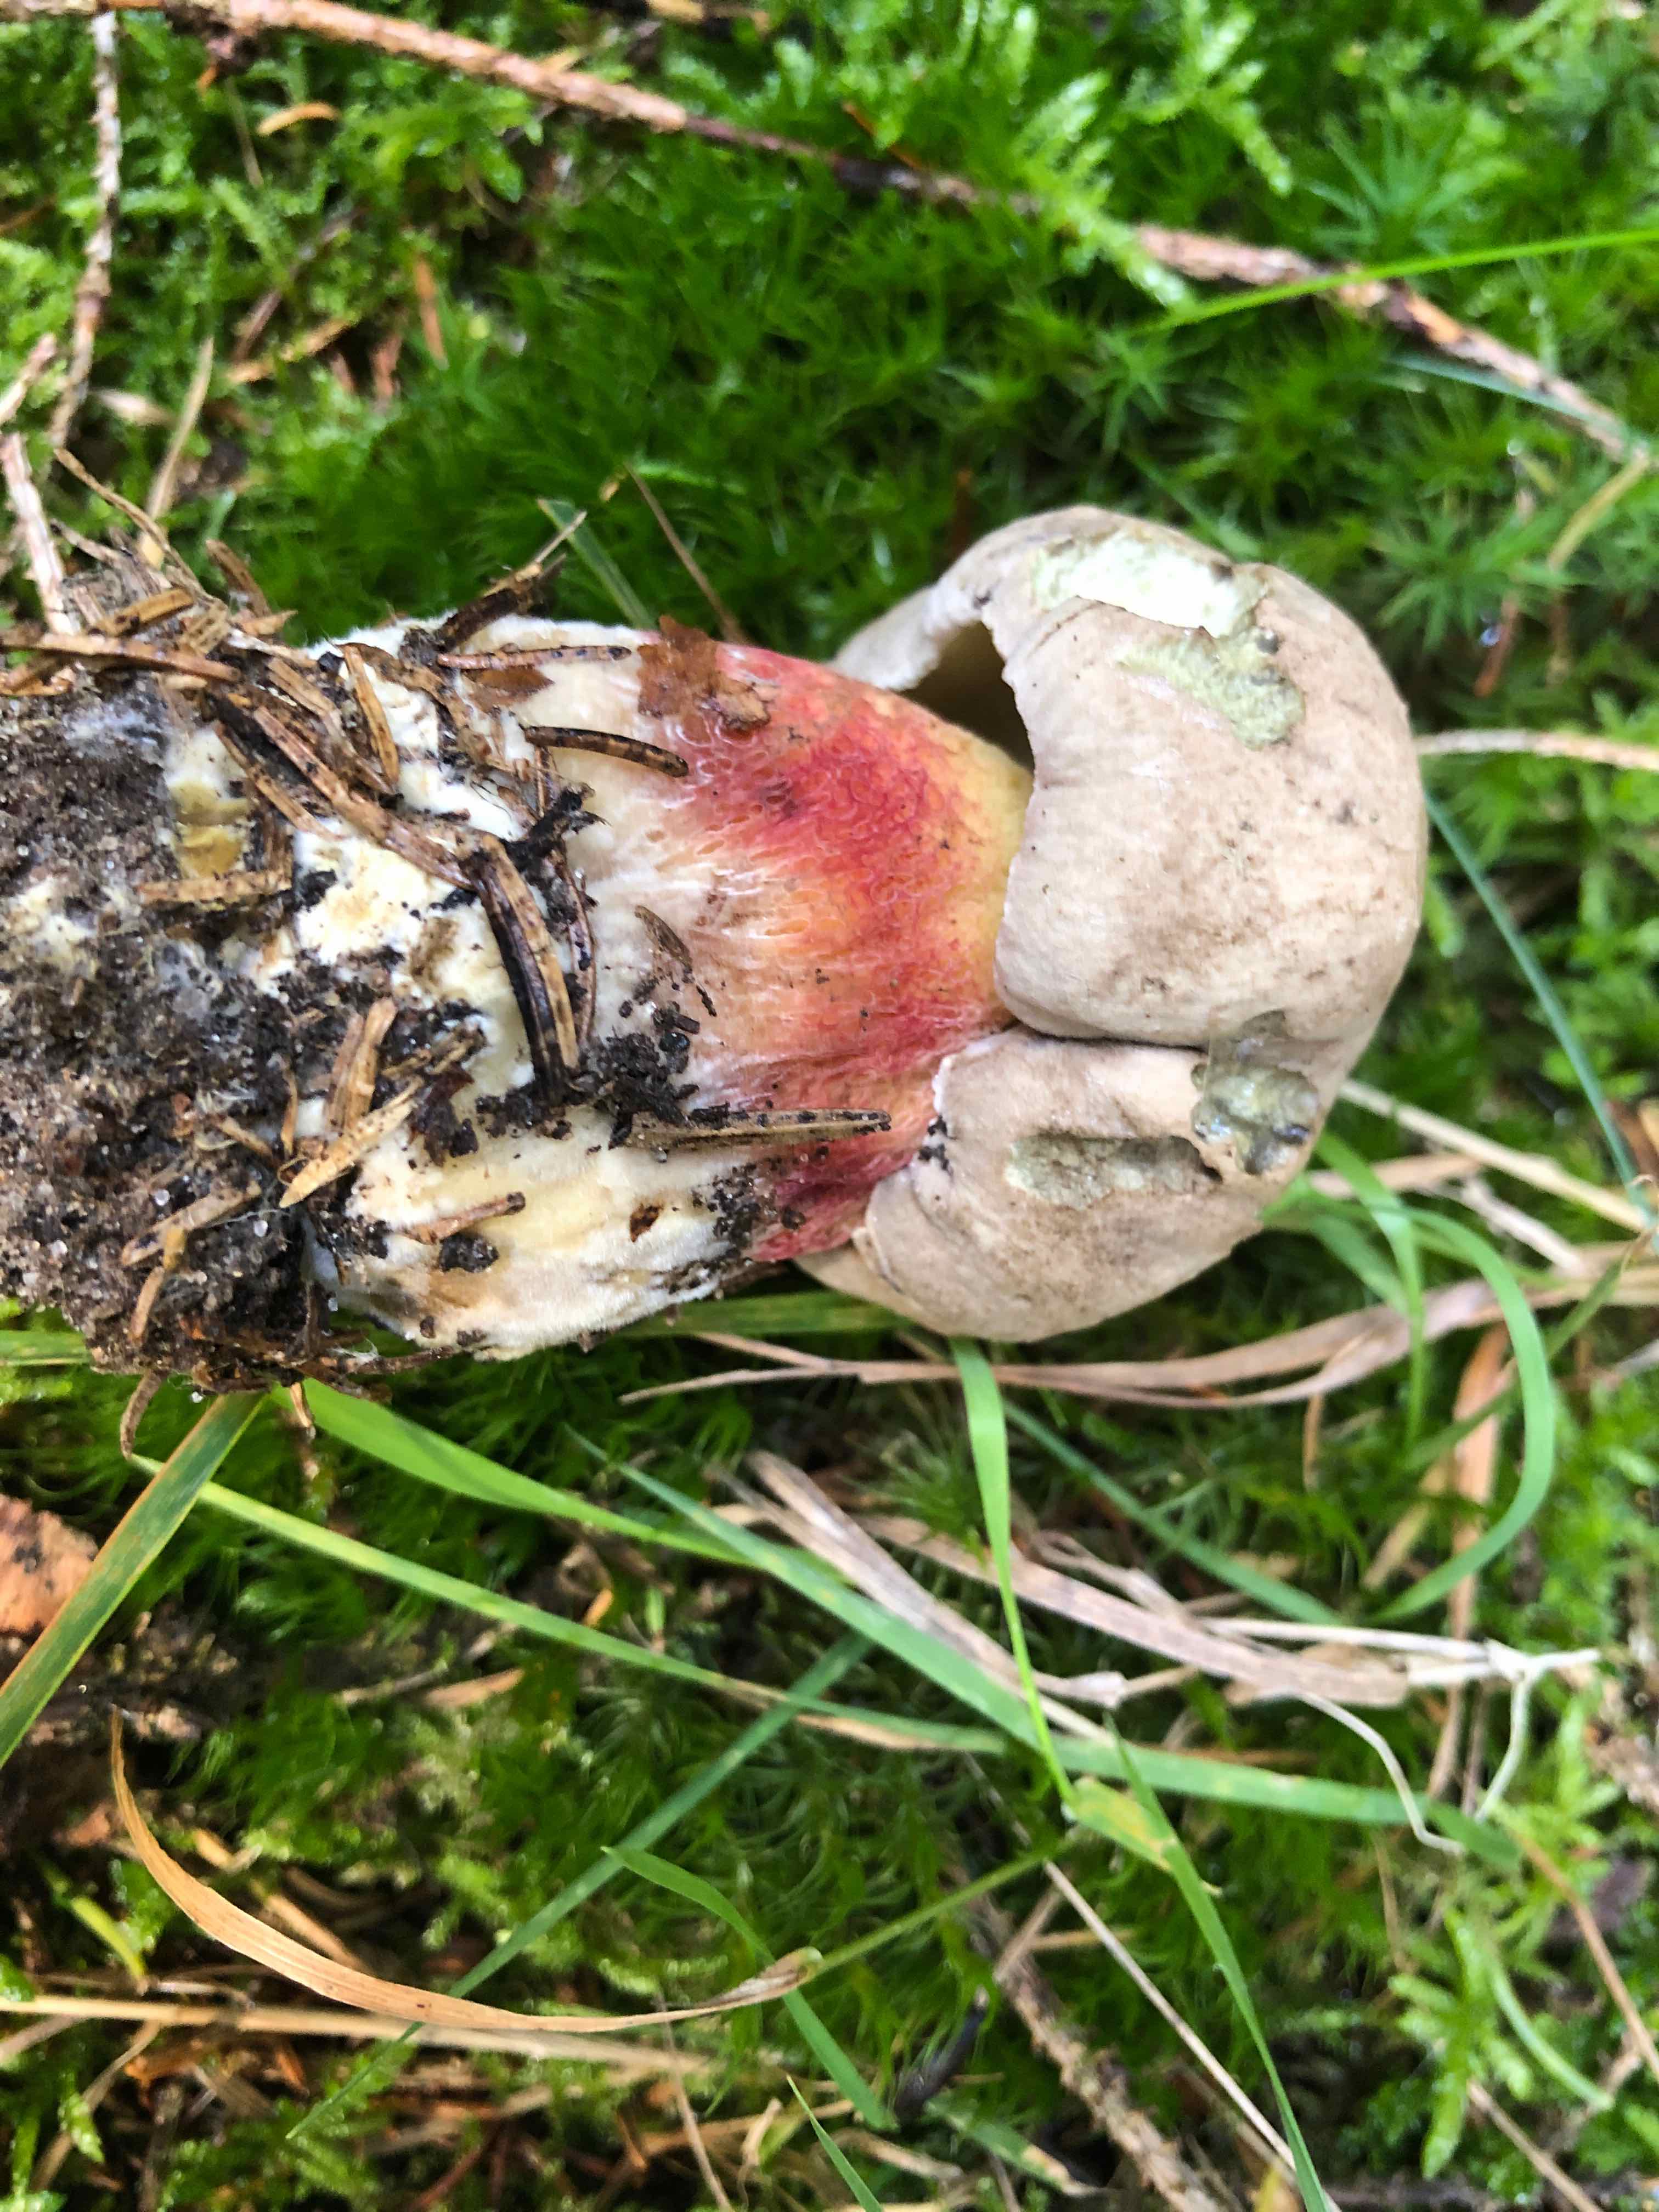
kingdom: Fungi
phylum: Basidiomycota
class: Agaricomycetes
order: Boletales
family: Boletaceae
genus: Caloboletus
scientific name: Caloboletus calopus
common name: skønfodet rørhat
